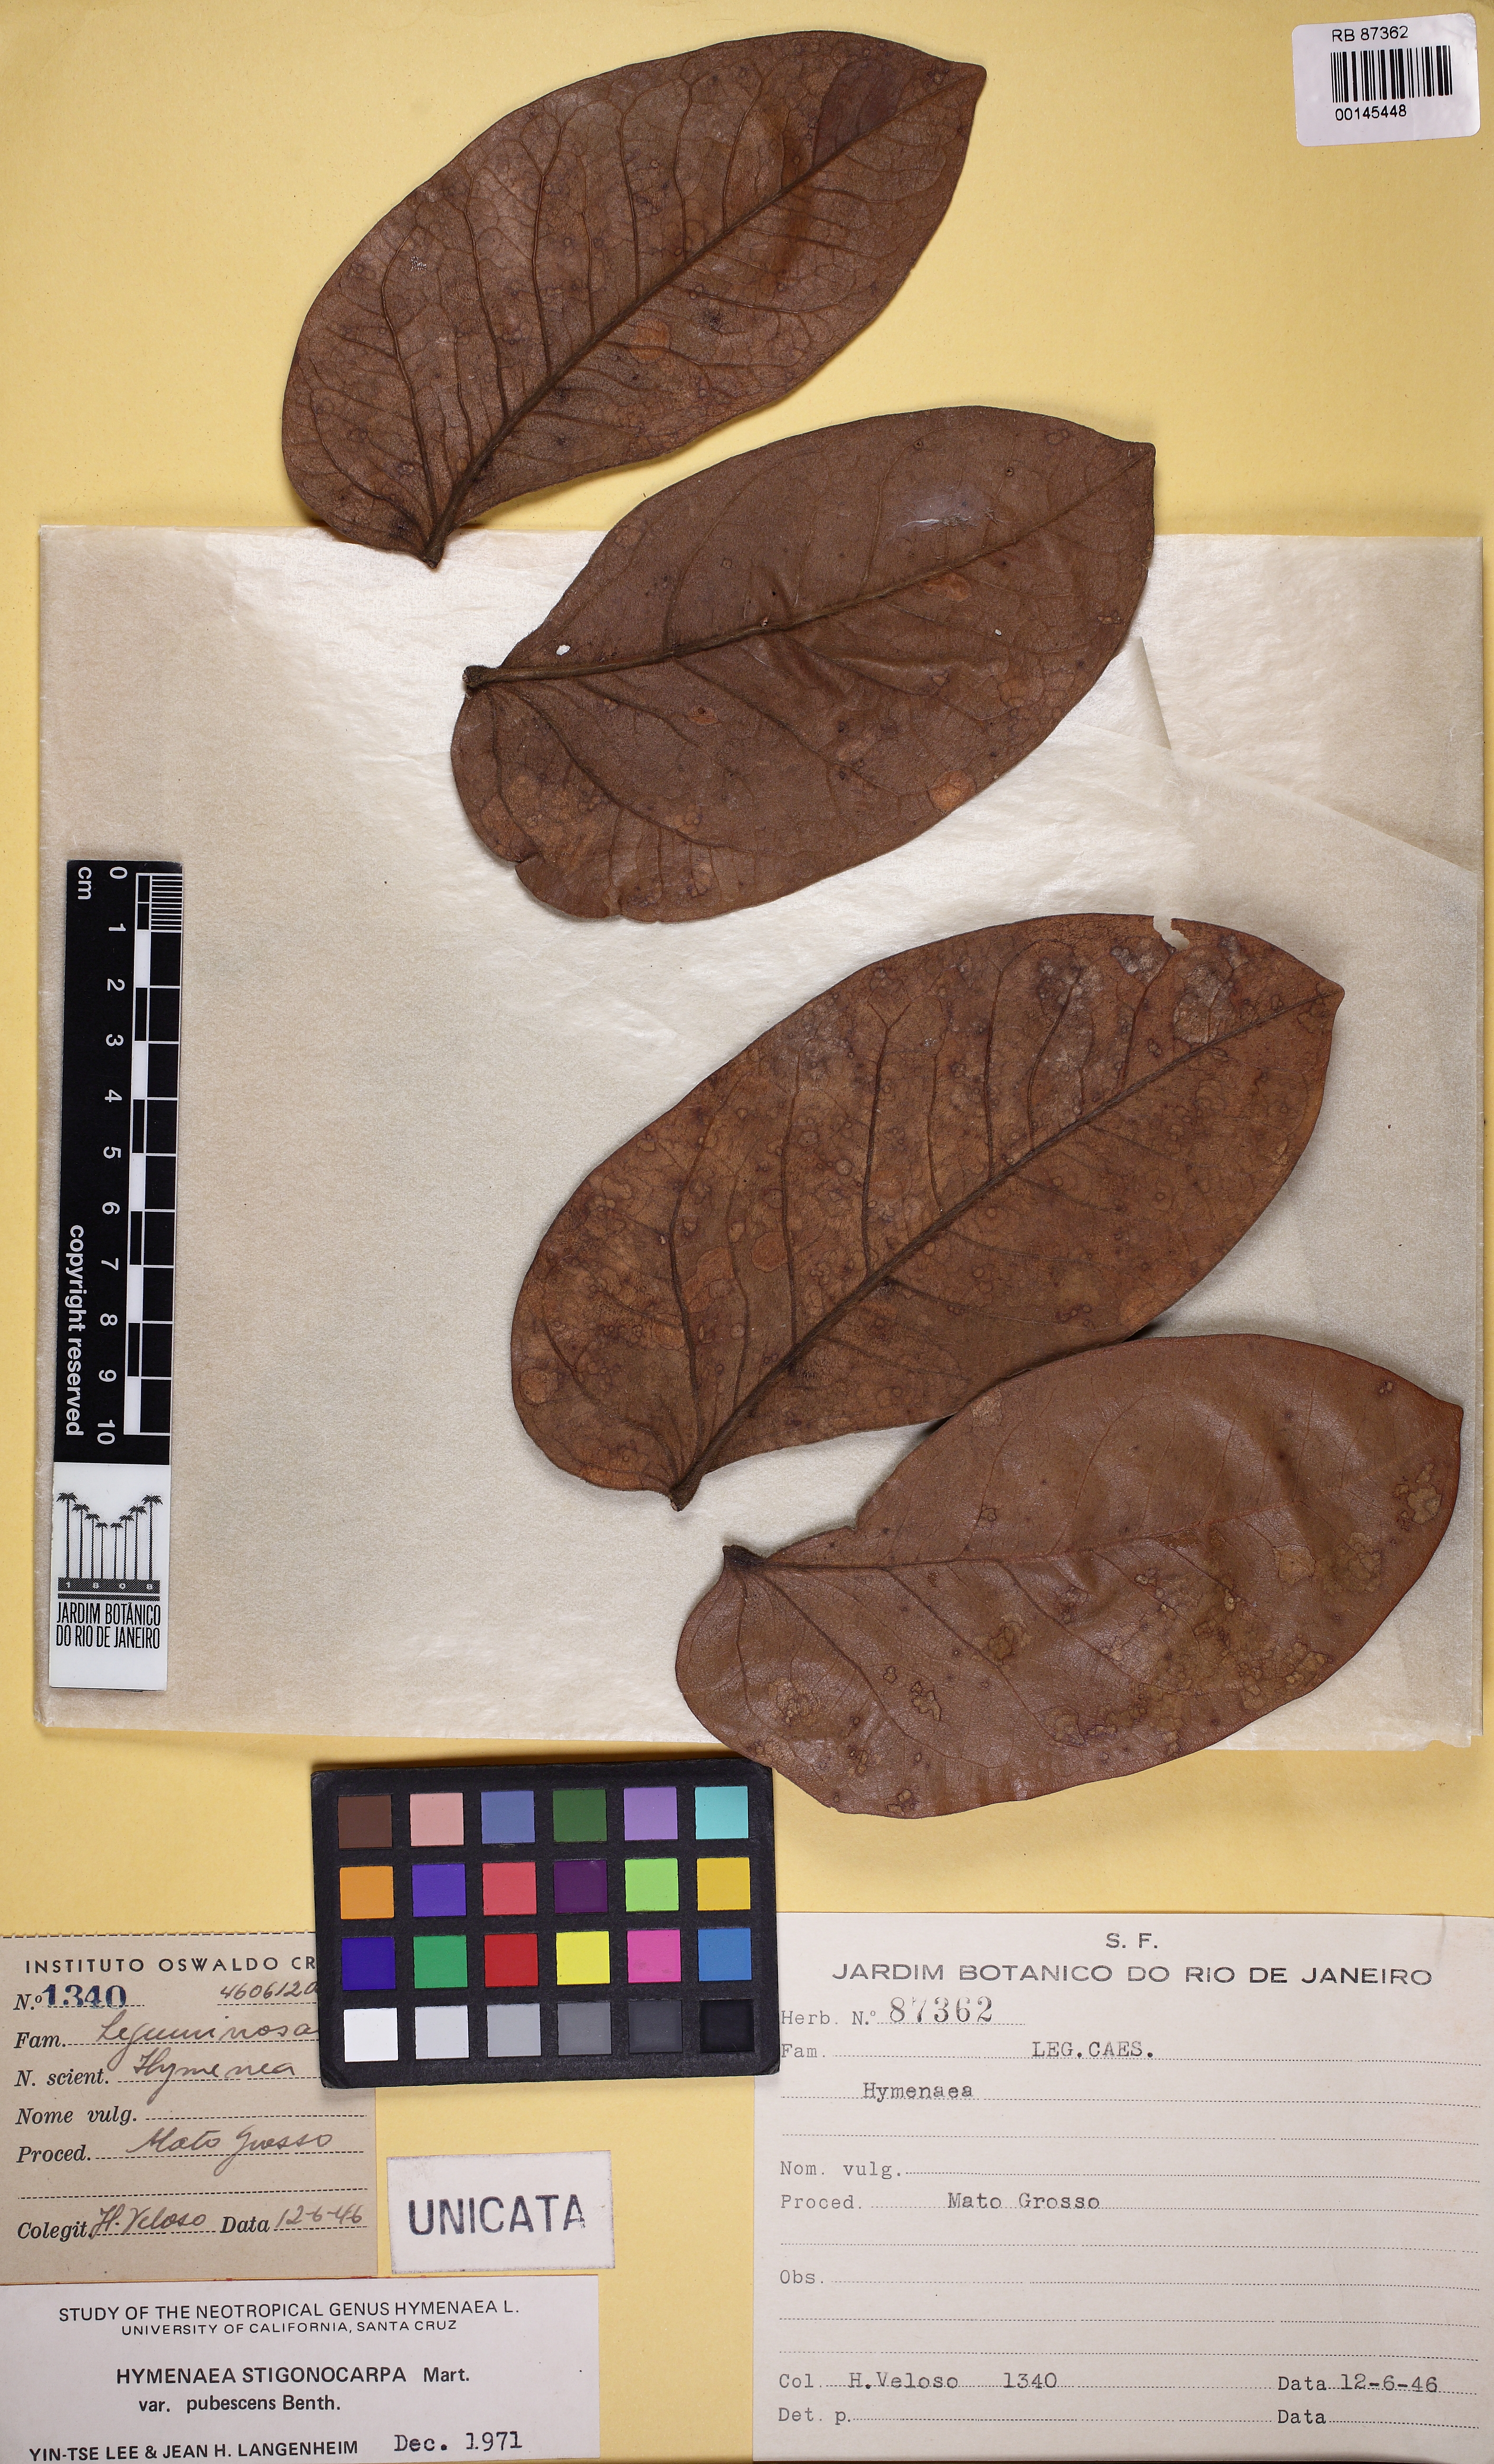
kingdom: Plantae
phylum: Tracheophyta
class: Magnoliopsida
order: Fabales
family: Fabaceae
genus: Hymenaea
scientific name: Hymenaea stigonocarpa
